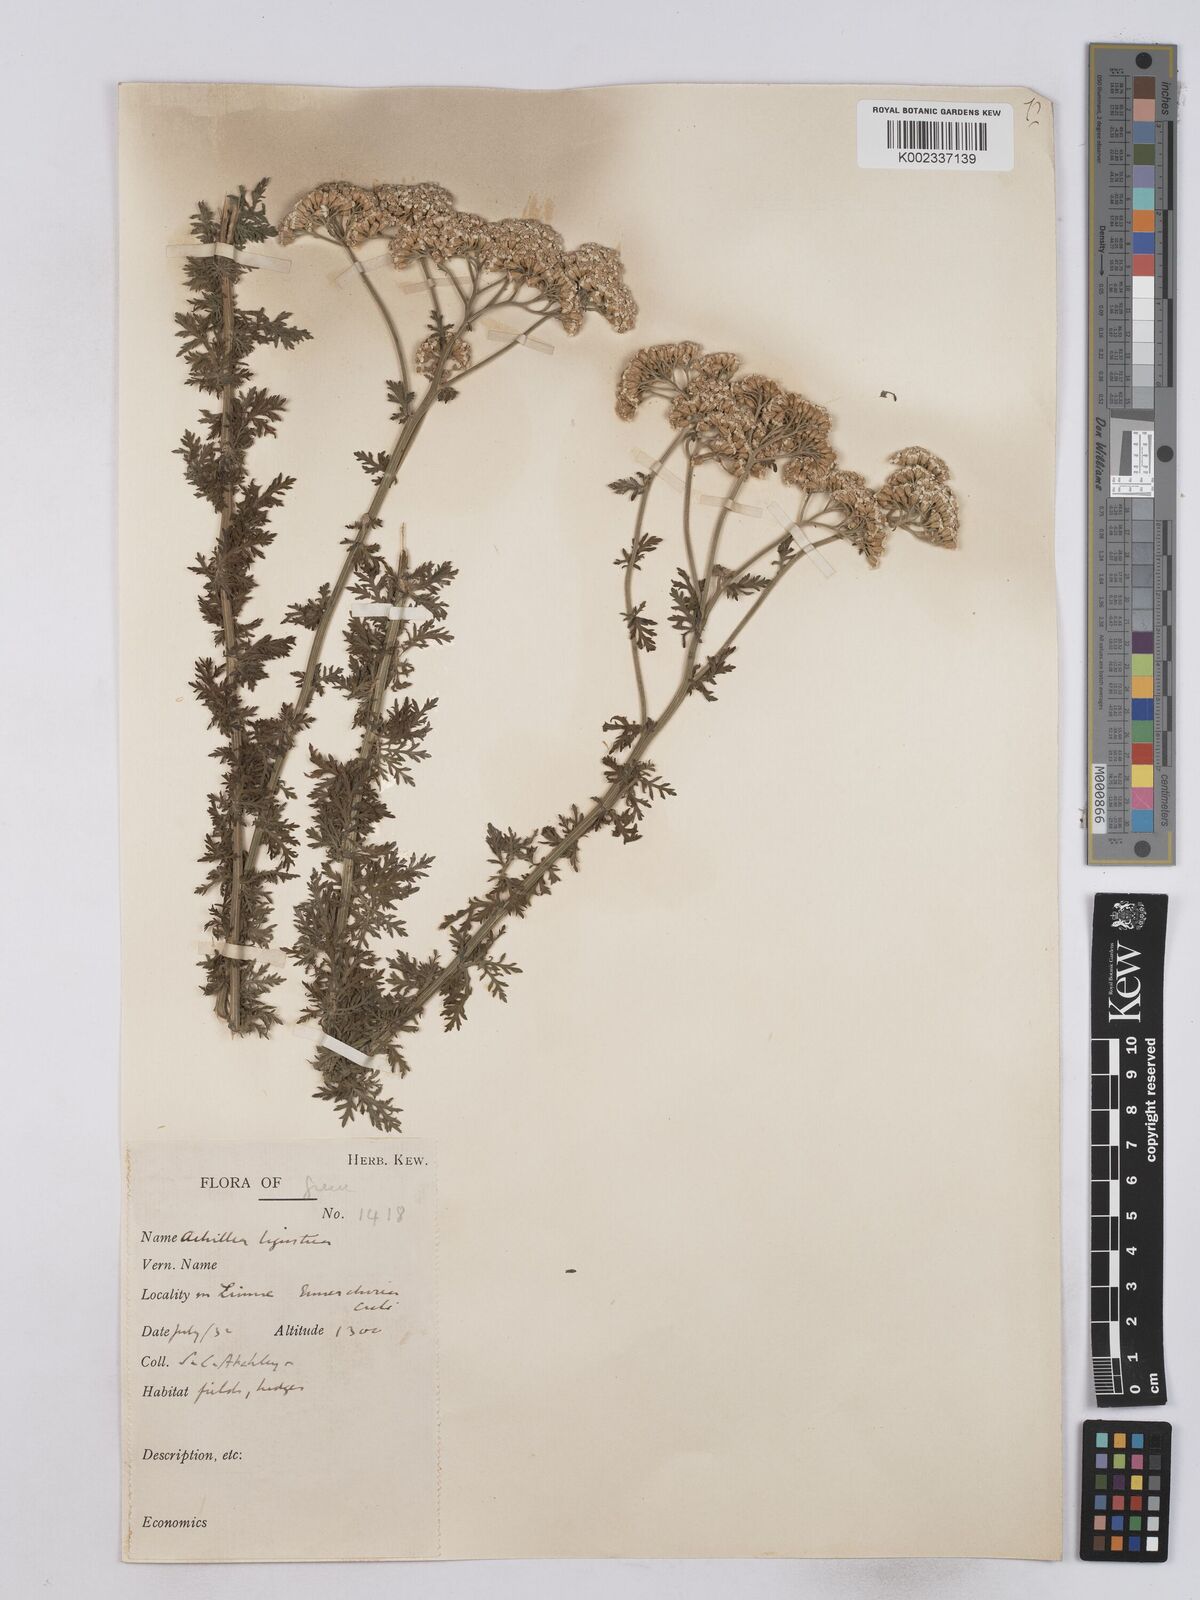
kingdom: Plantae
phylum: Tracheophyta
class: Magnoliopsida
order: Asterales
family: Asteraceae
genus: Achillea
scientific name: Achillea ligustica
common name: Southern yarrow
